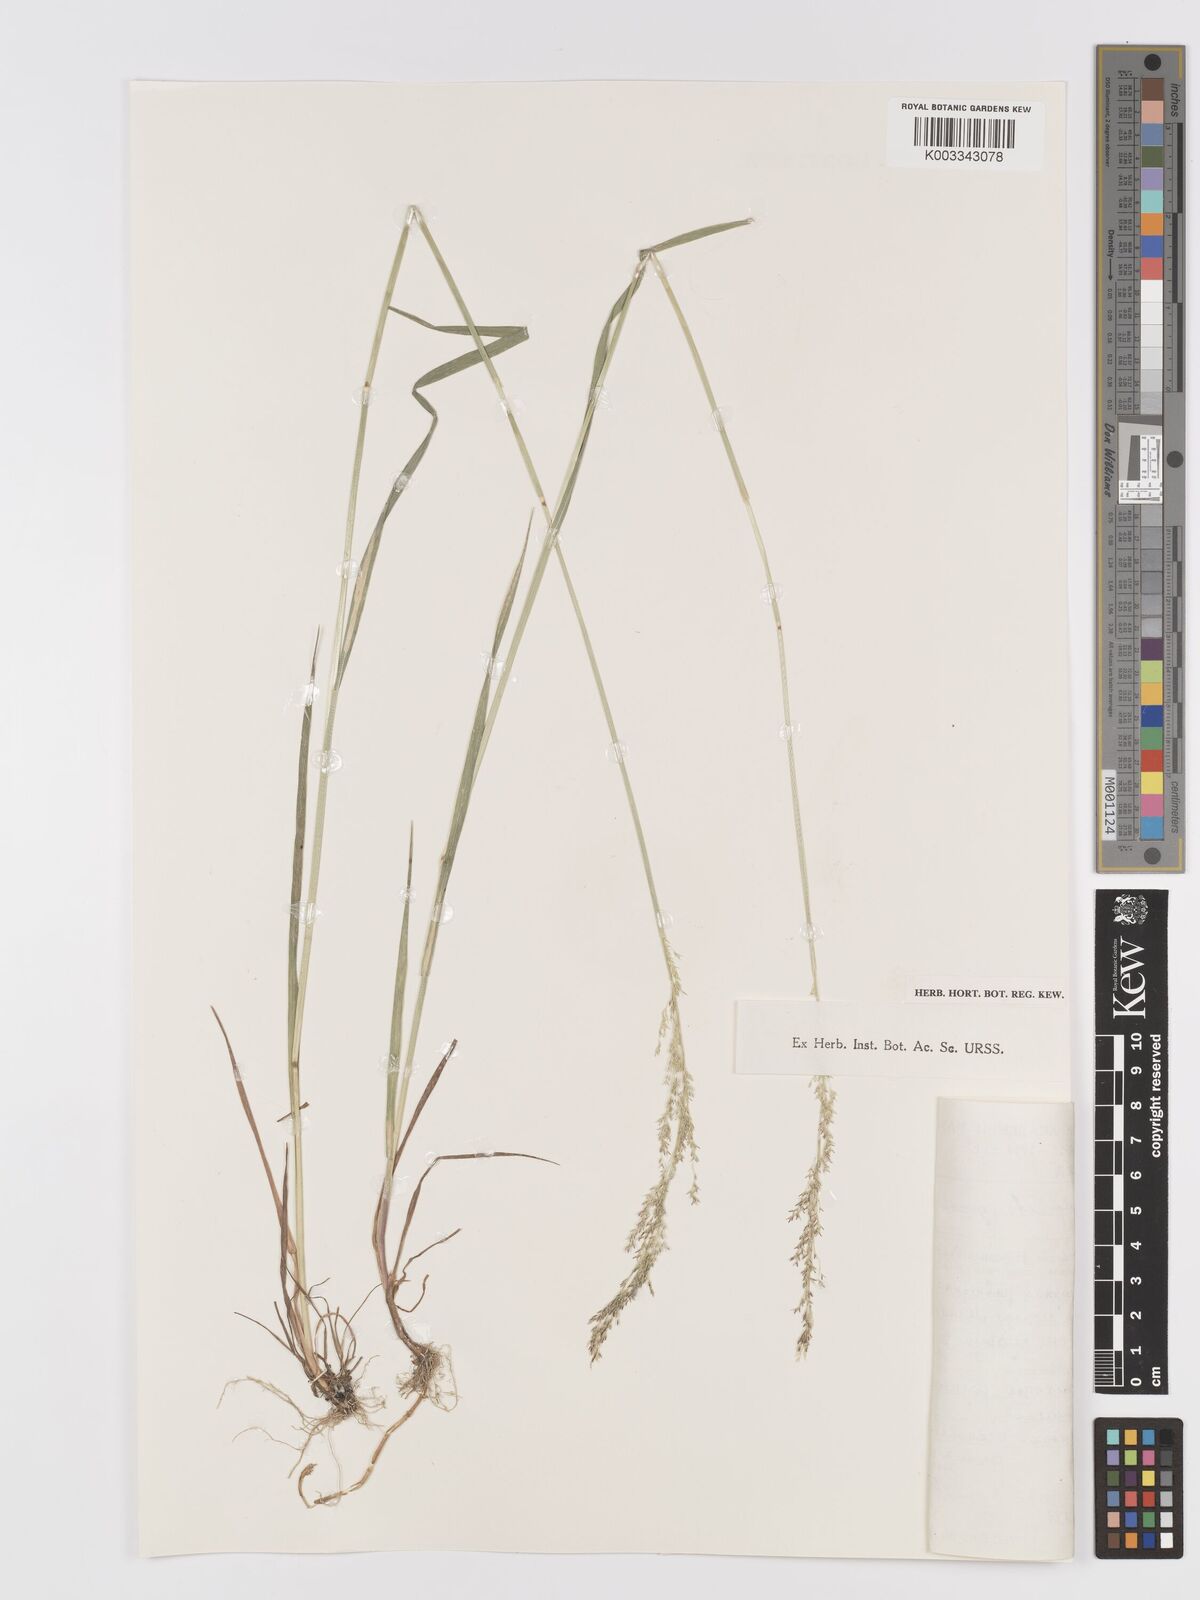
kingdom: Plantae
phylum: Tracheophyta
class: Liliopsida
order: Poales
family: Poaceae
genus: Agrostis
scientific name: Agrostis gigantea
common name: Black bent
